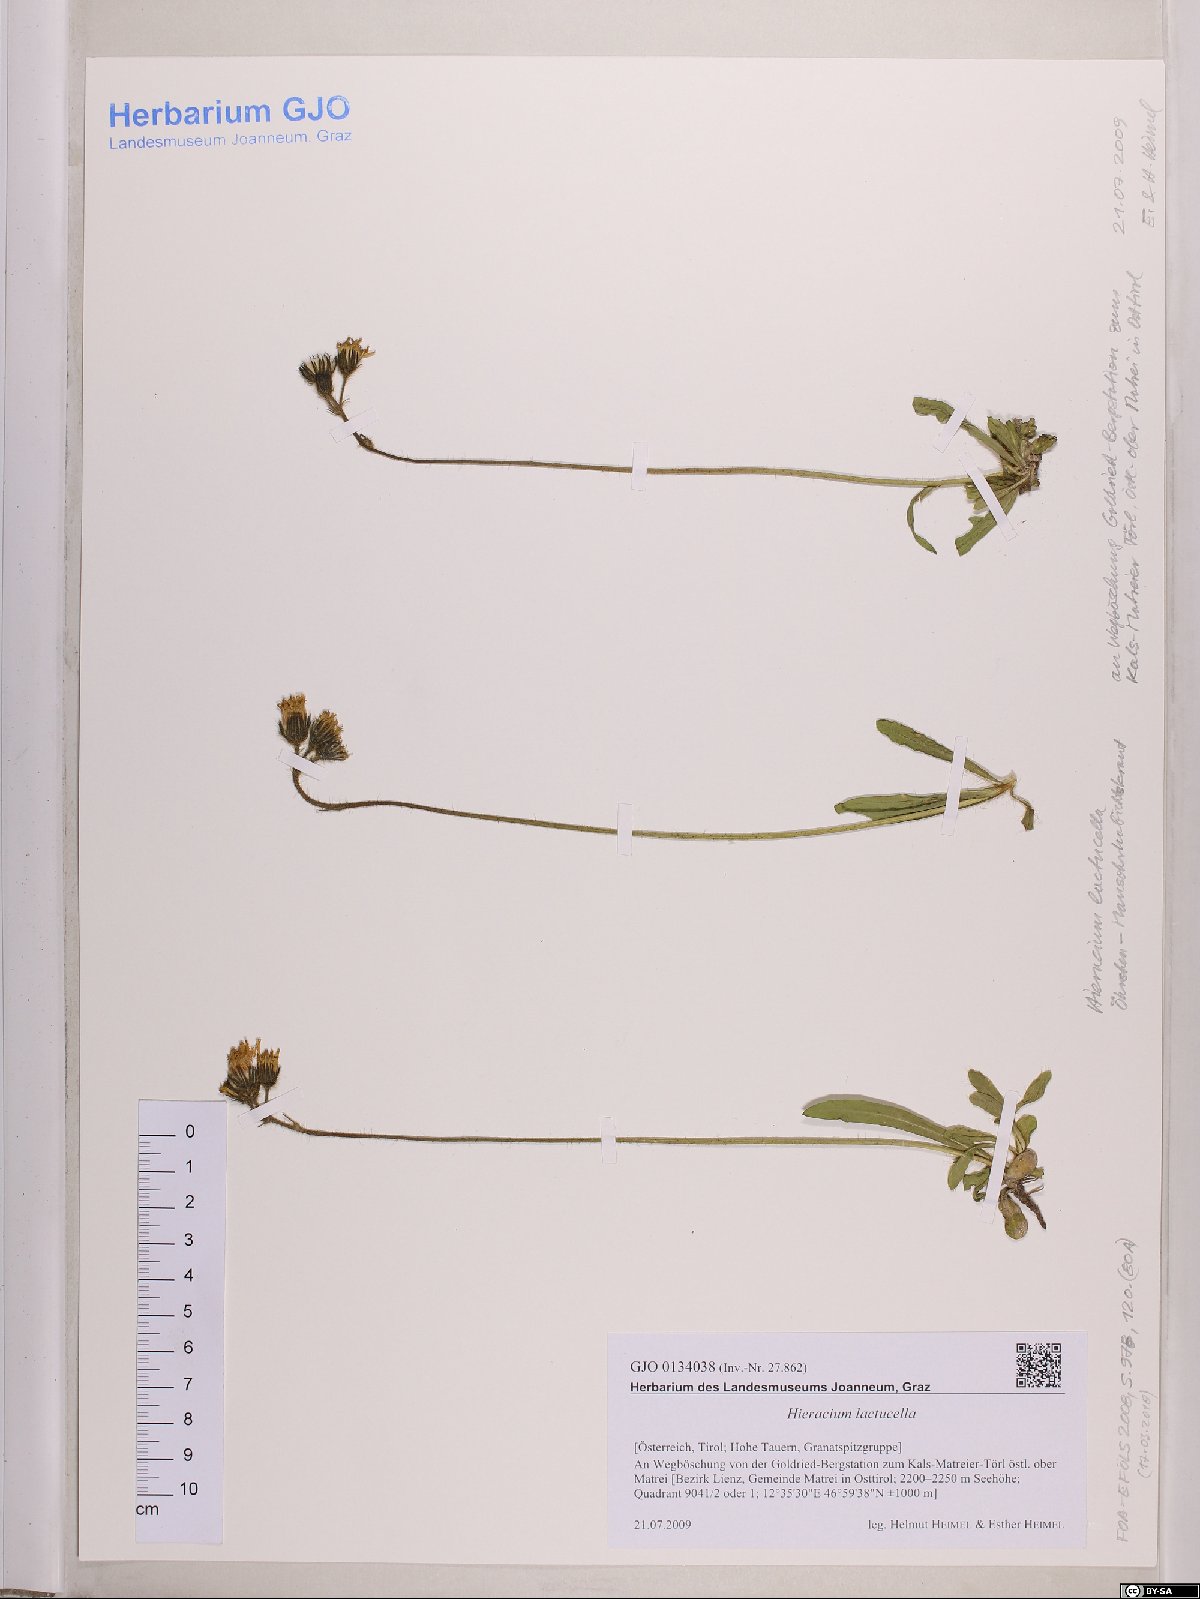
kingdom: Plantae
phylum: Tracheophyta
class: Magnoliopsida
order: Asterales
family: Asteraceae
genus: Pilosella
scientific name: Pilosella lactucella
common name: Glaucous fox-and-cubs
